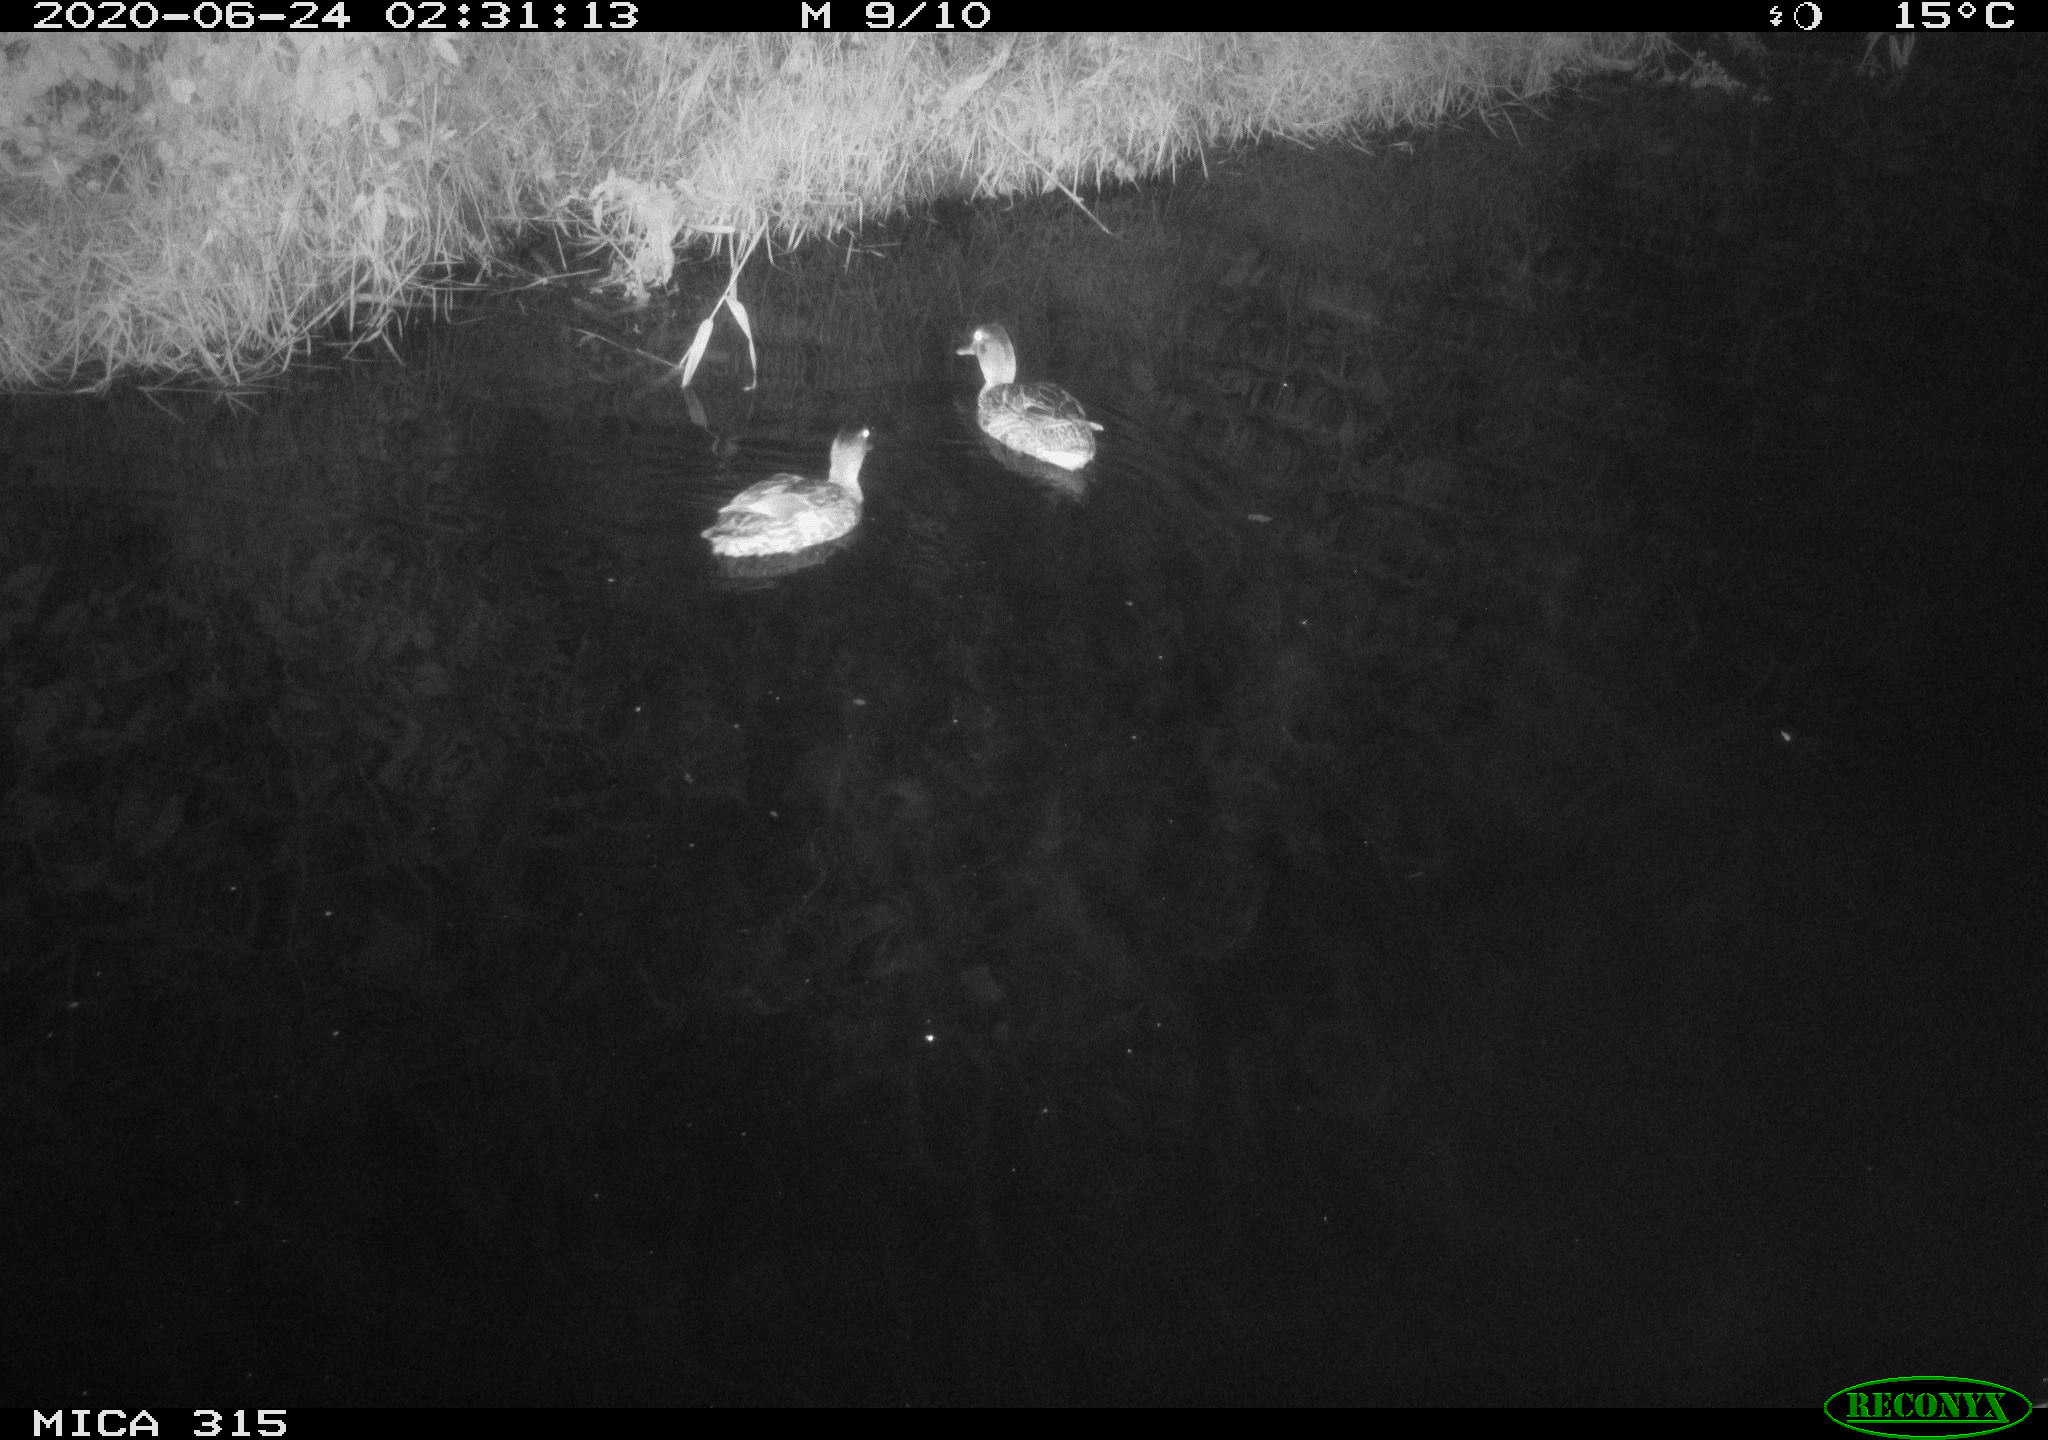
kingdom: Animalia
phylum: Chordata
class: Aves
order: Anseriformes
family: Anatidae
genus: Anas
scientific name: Anas platyrhynchos
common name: Mallard
